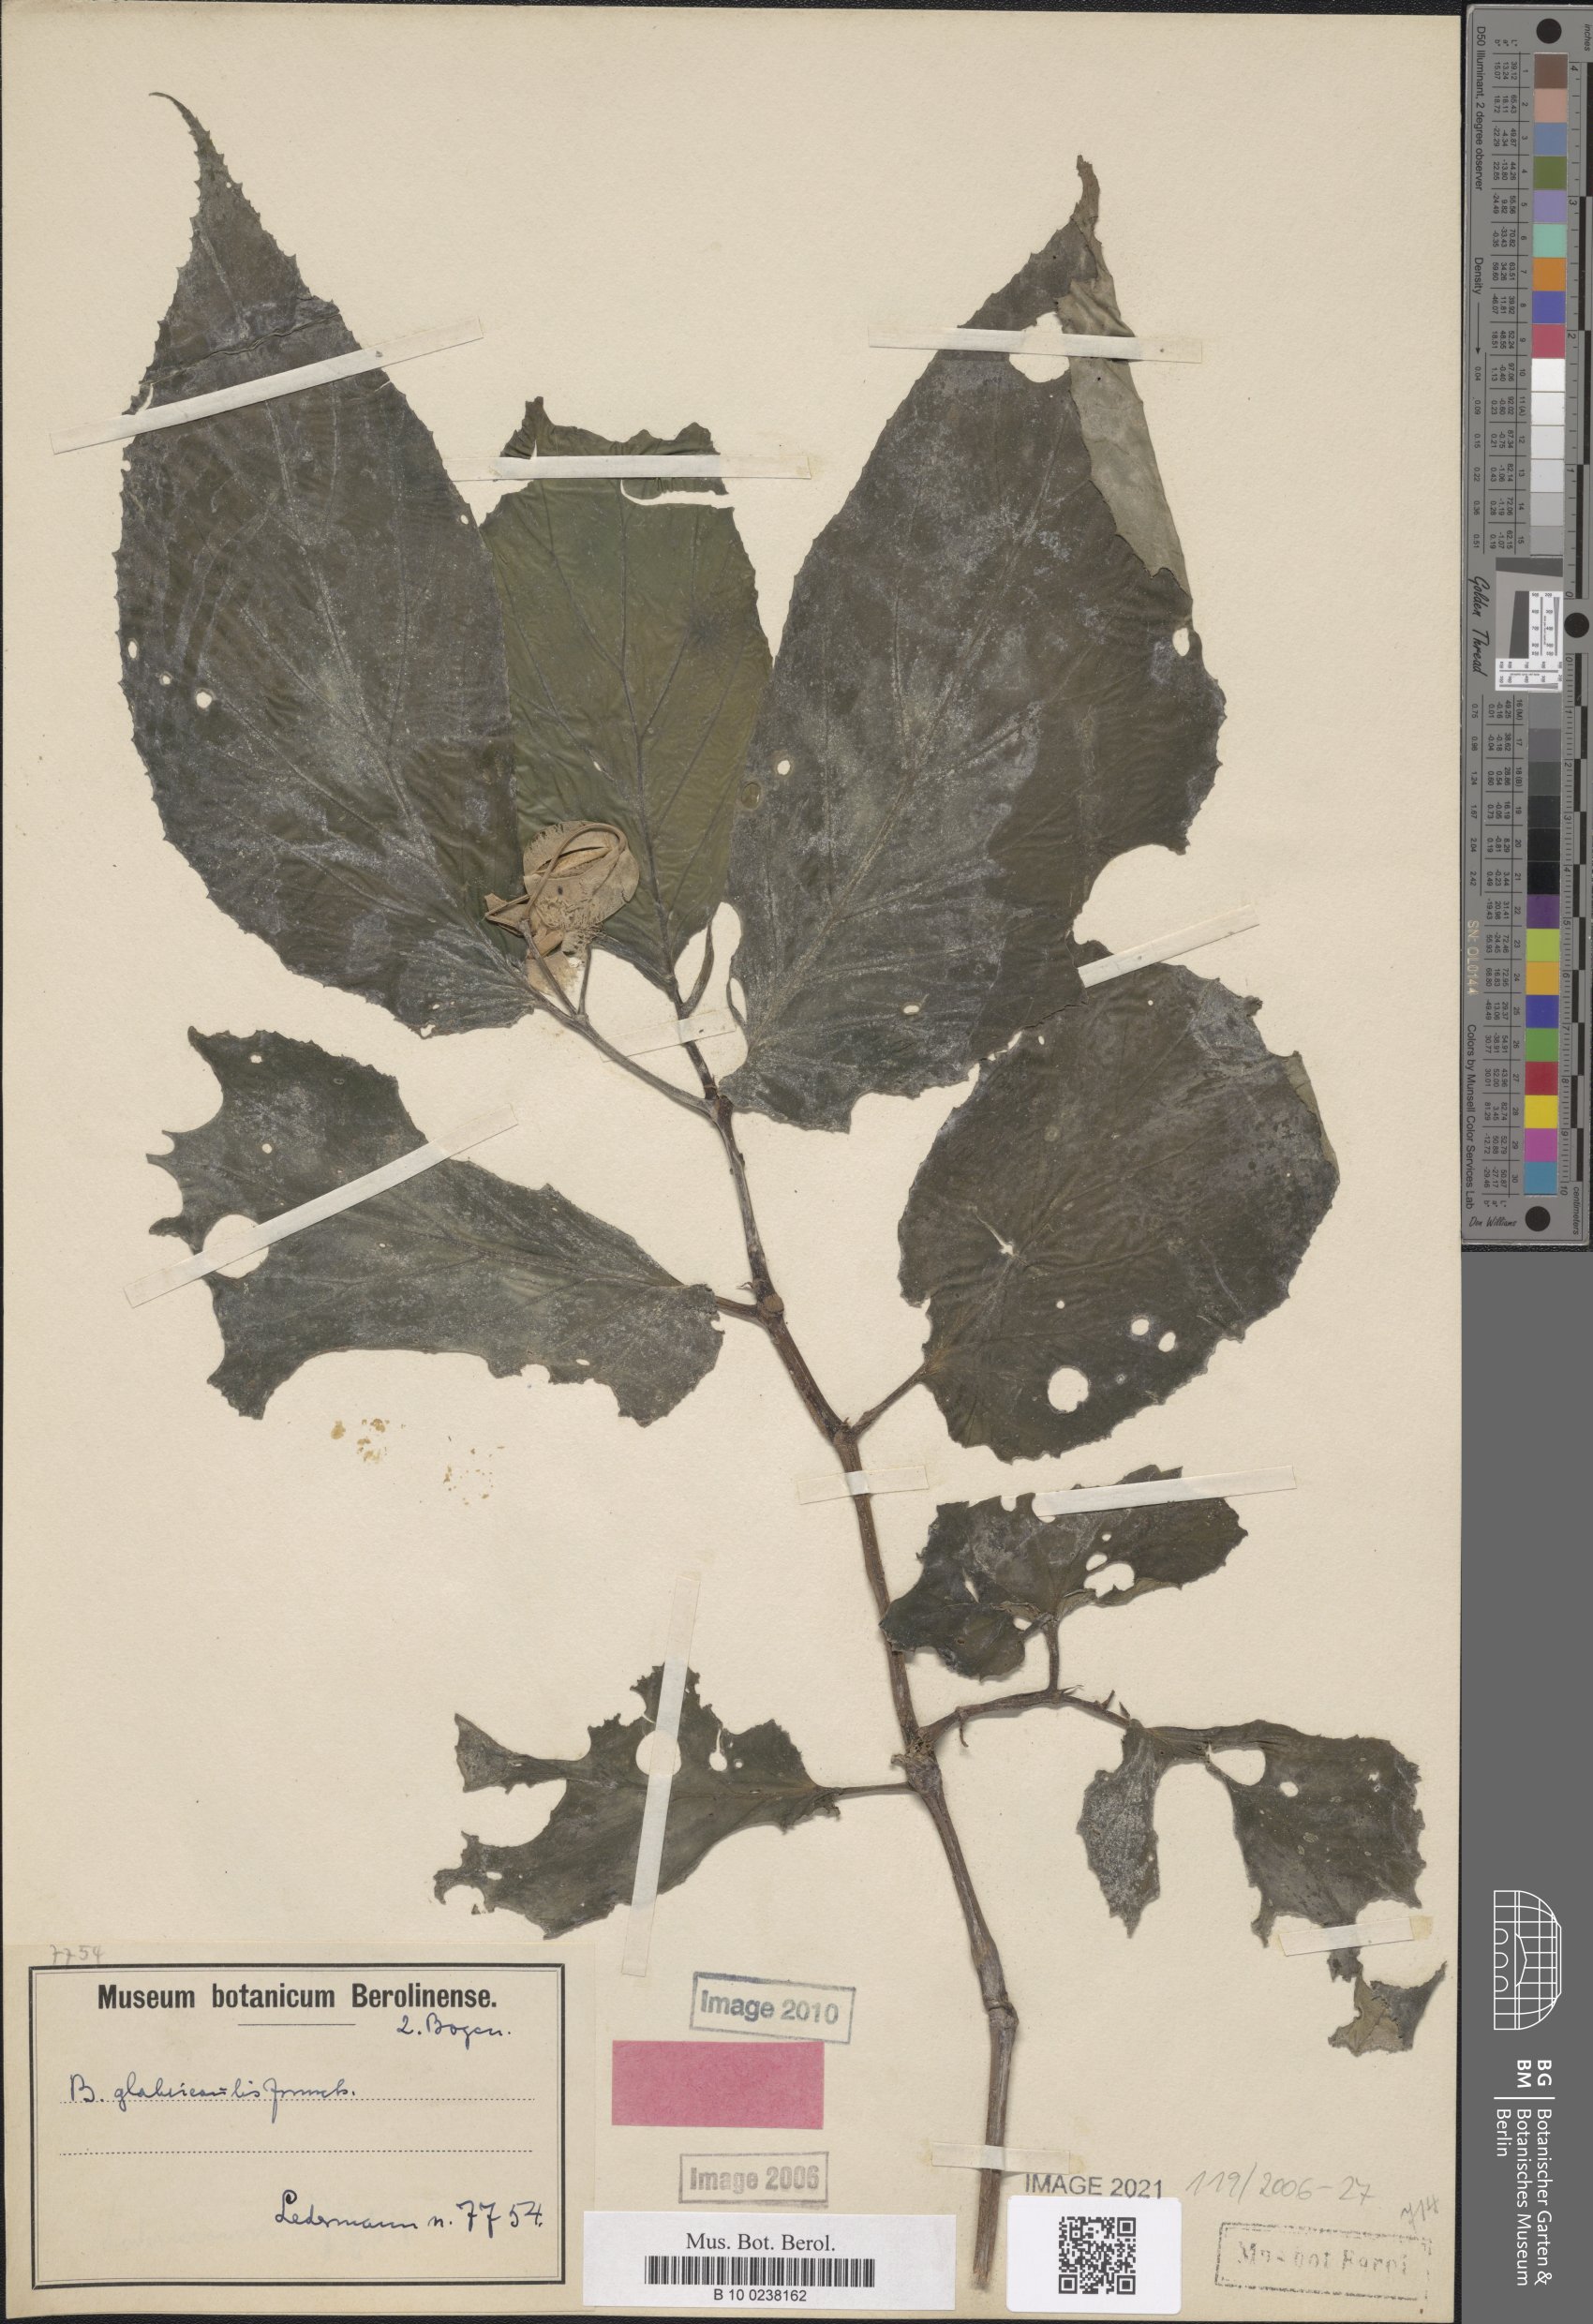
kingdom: Plantae
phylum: Tracheophyta
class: Magnoliopsida
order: Cucurbitales
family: Begoniaceae
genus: Begonia
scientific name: Begonia glabricaulis
